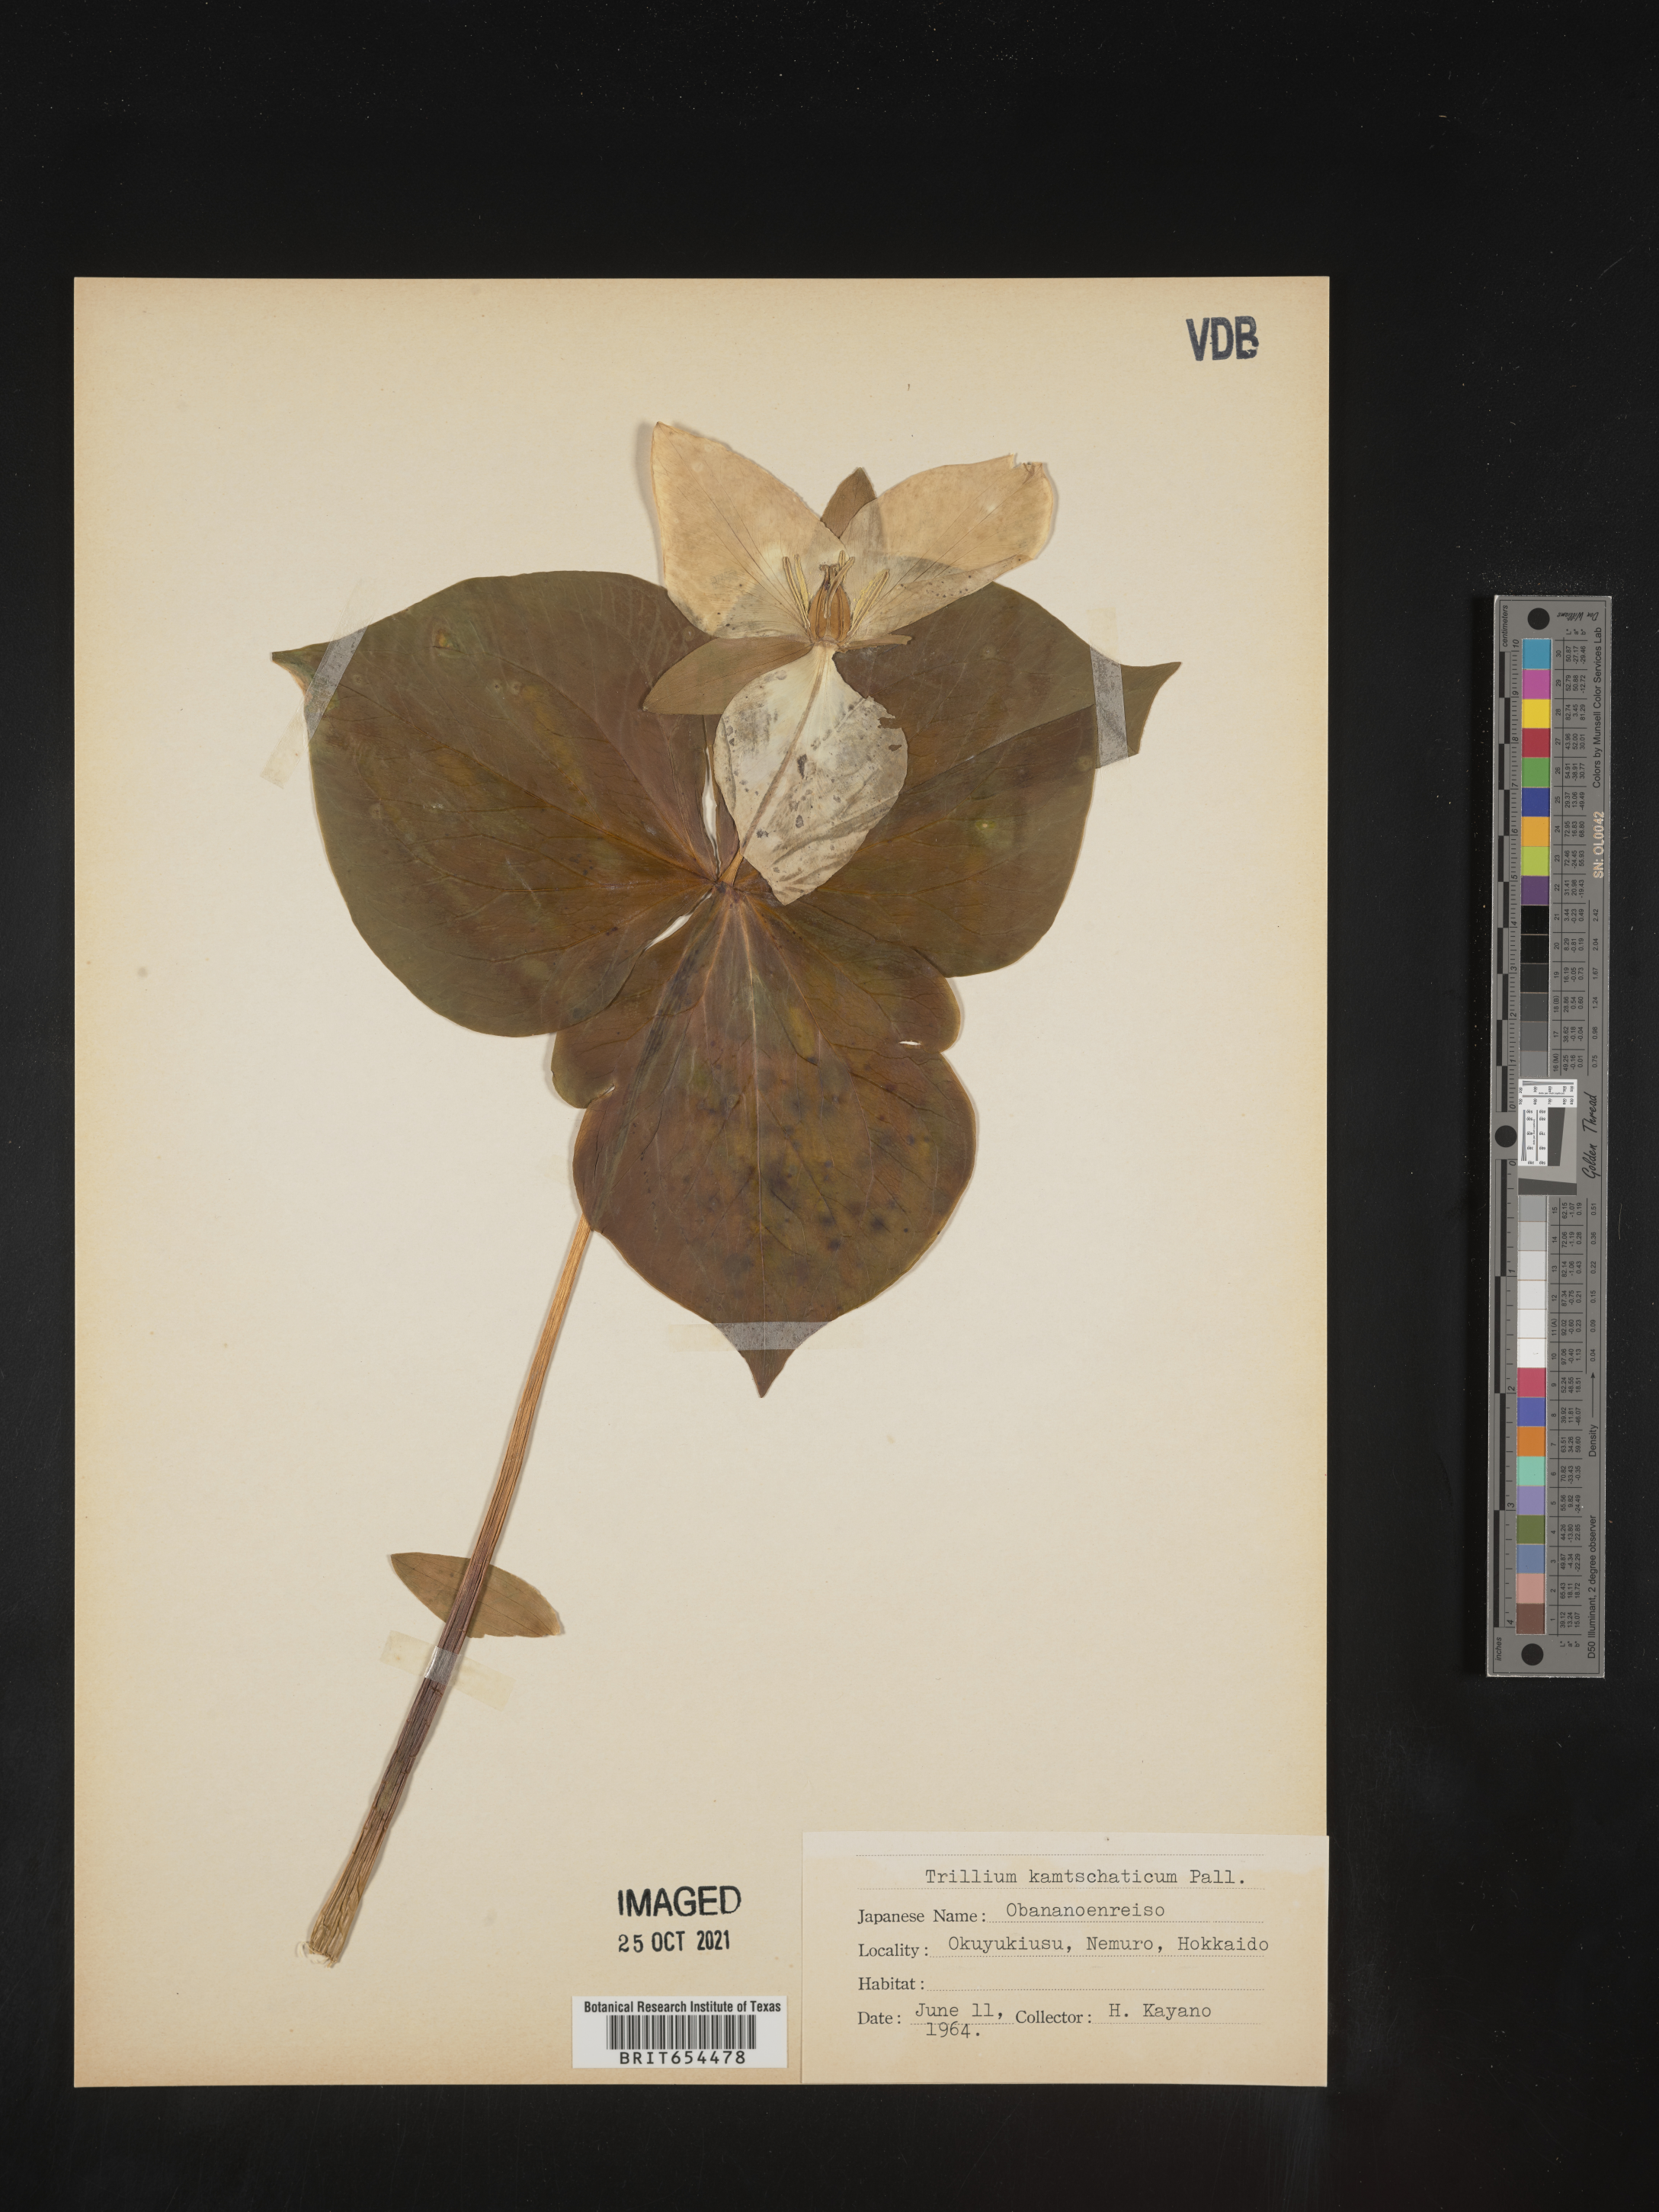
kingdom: Plantae
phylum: Tracheophyta
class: Liliopsida
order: Liliales
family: Melanthiaceae
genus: Trillium
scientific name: Trillium
